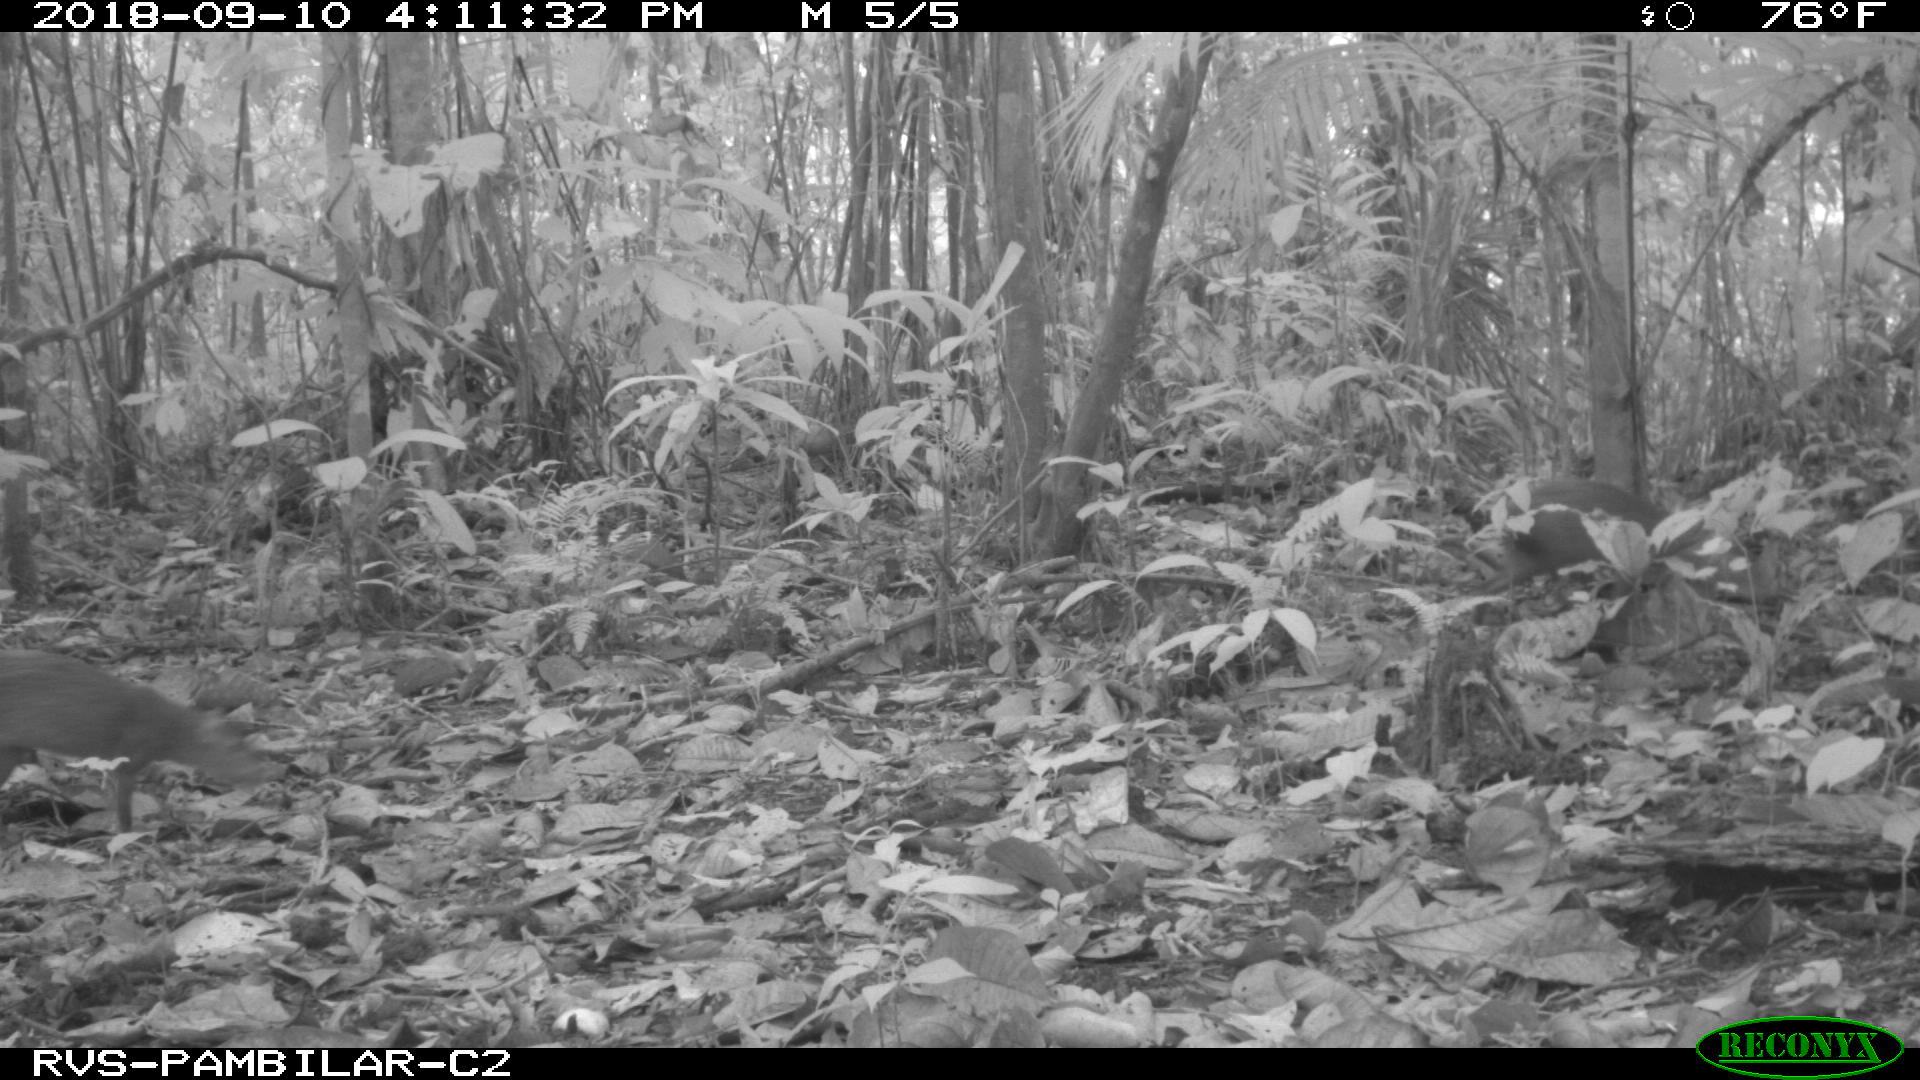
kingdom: Animalia
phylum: Chordata
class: Mammalia
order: Rodentia
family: Dasyproctidae
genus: Dasyprocta
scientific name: Dasyprocta punctata
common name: Central american agouti
